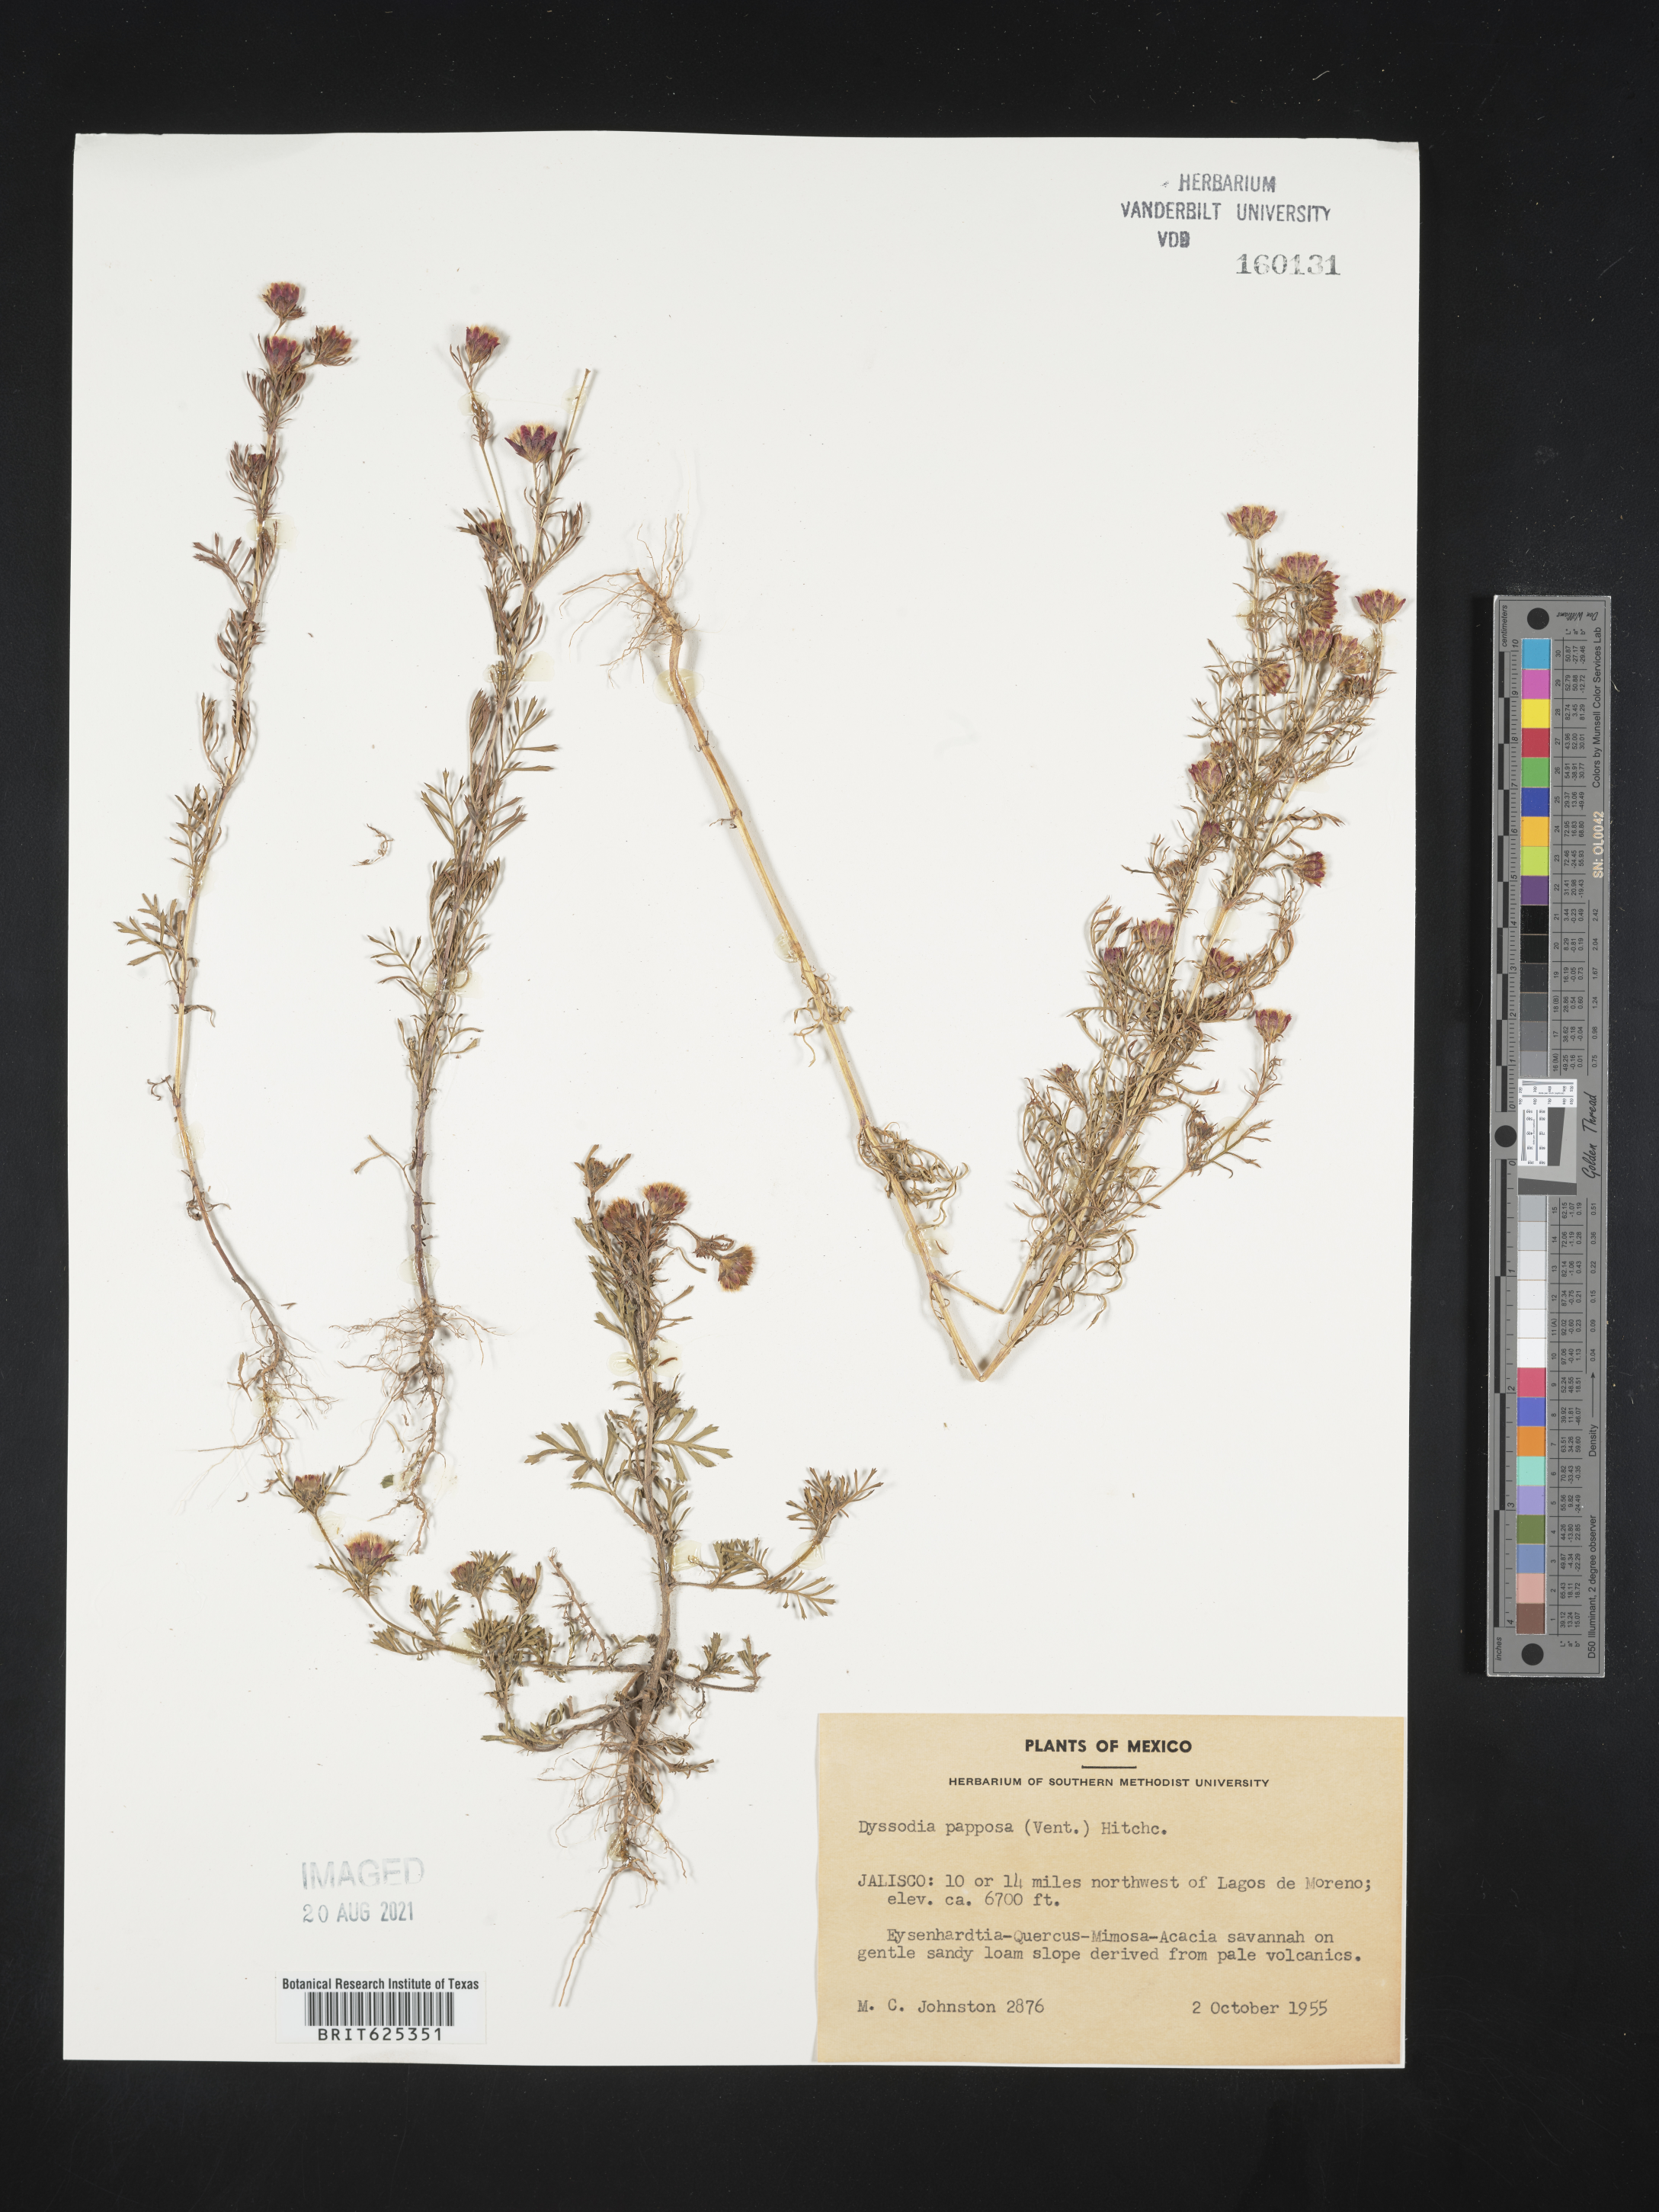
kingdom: Plantae
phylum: Tracheophyta
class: Magnoliopsida
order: Asterales
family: Asteraceae
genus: Dyssodia
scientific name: Dyssodia
